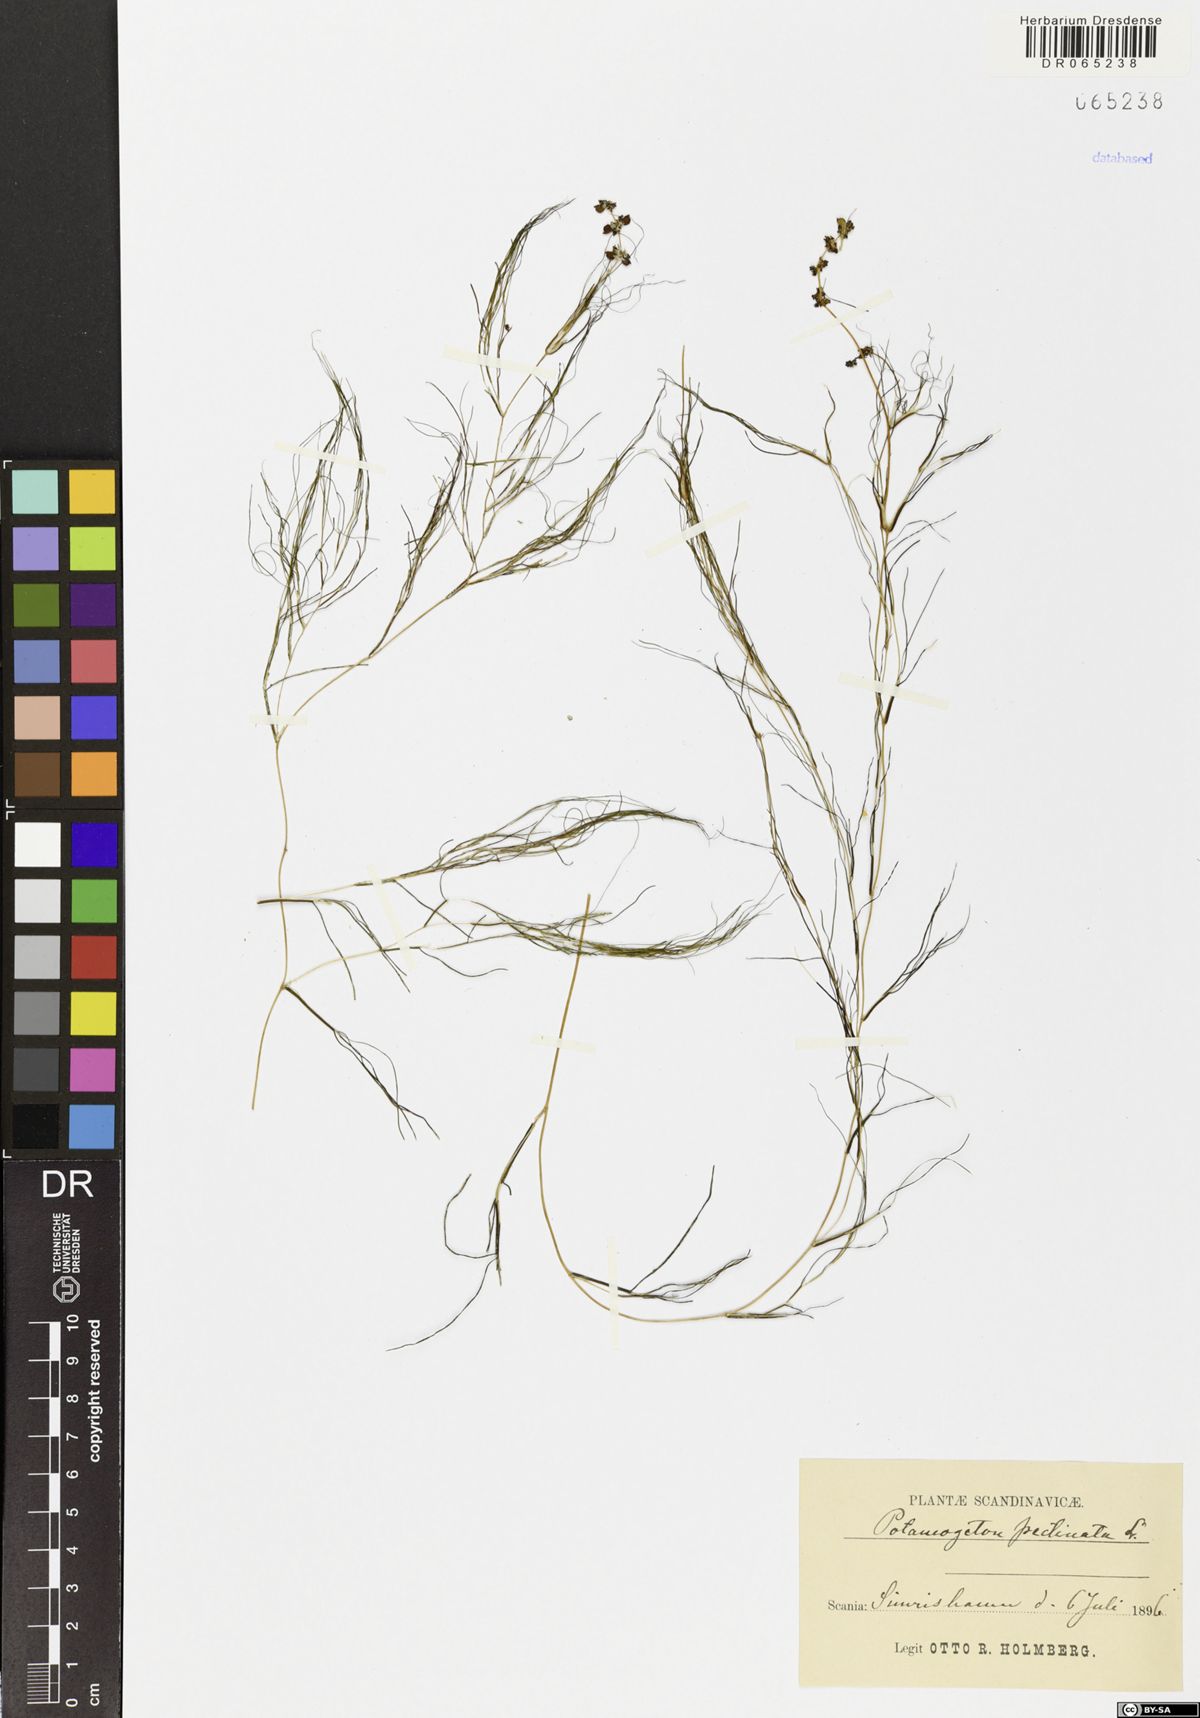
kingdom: Plantae
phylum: Tracheophyta
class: Liliopsida
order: Alismatales
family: Potamogetonaceae
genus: Stuckenia
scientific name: Stuckenia pectinata
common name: Sago pondweed
